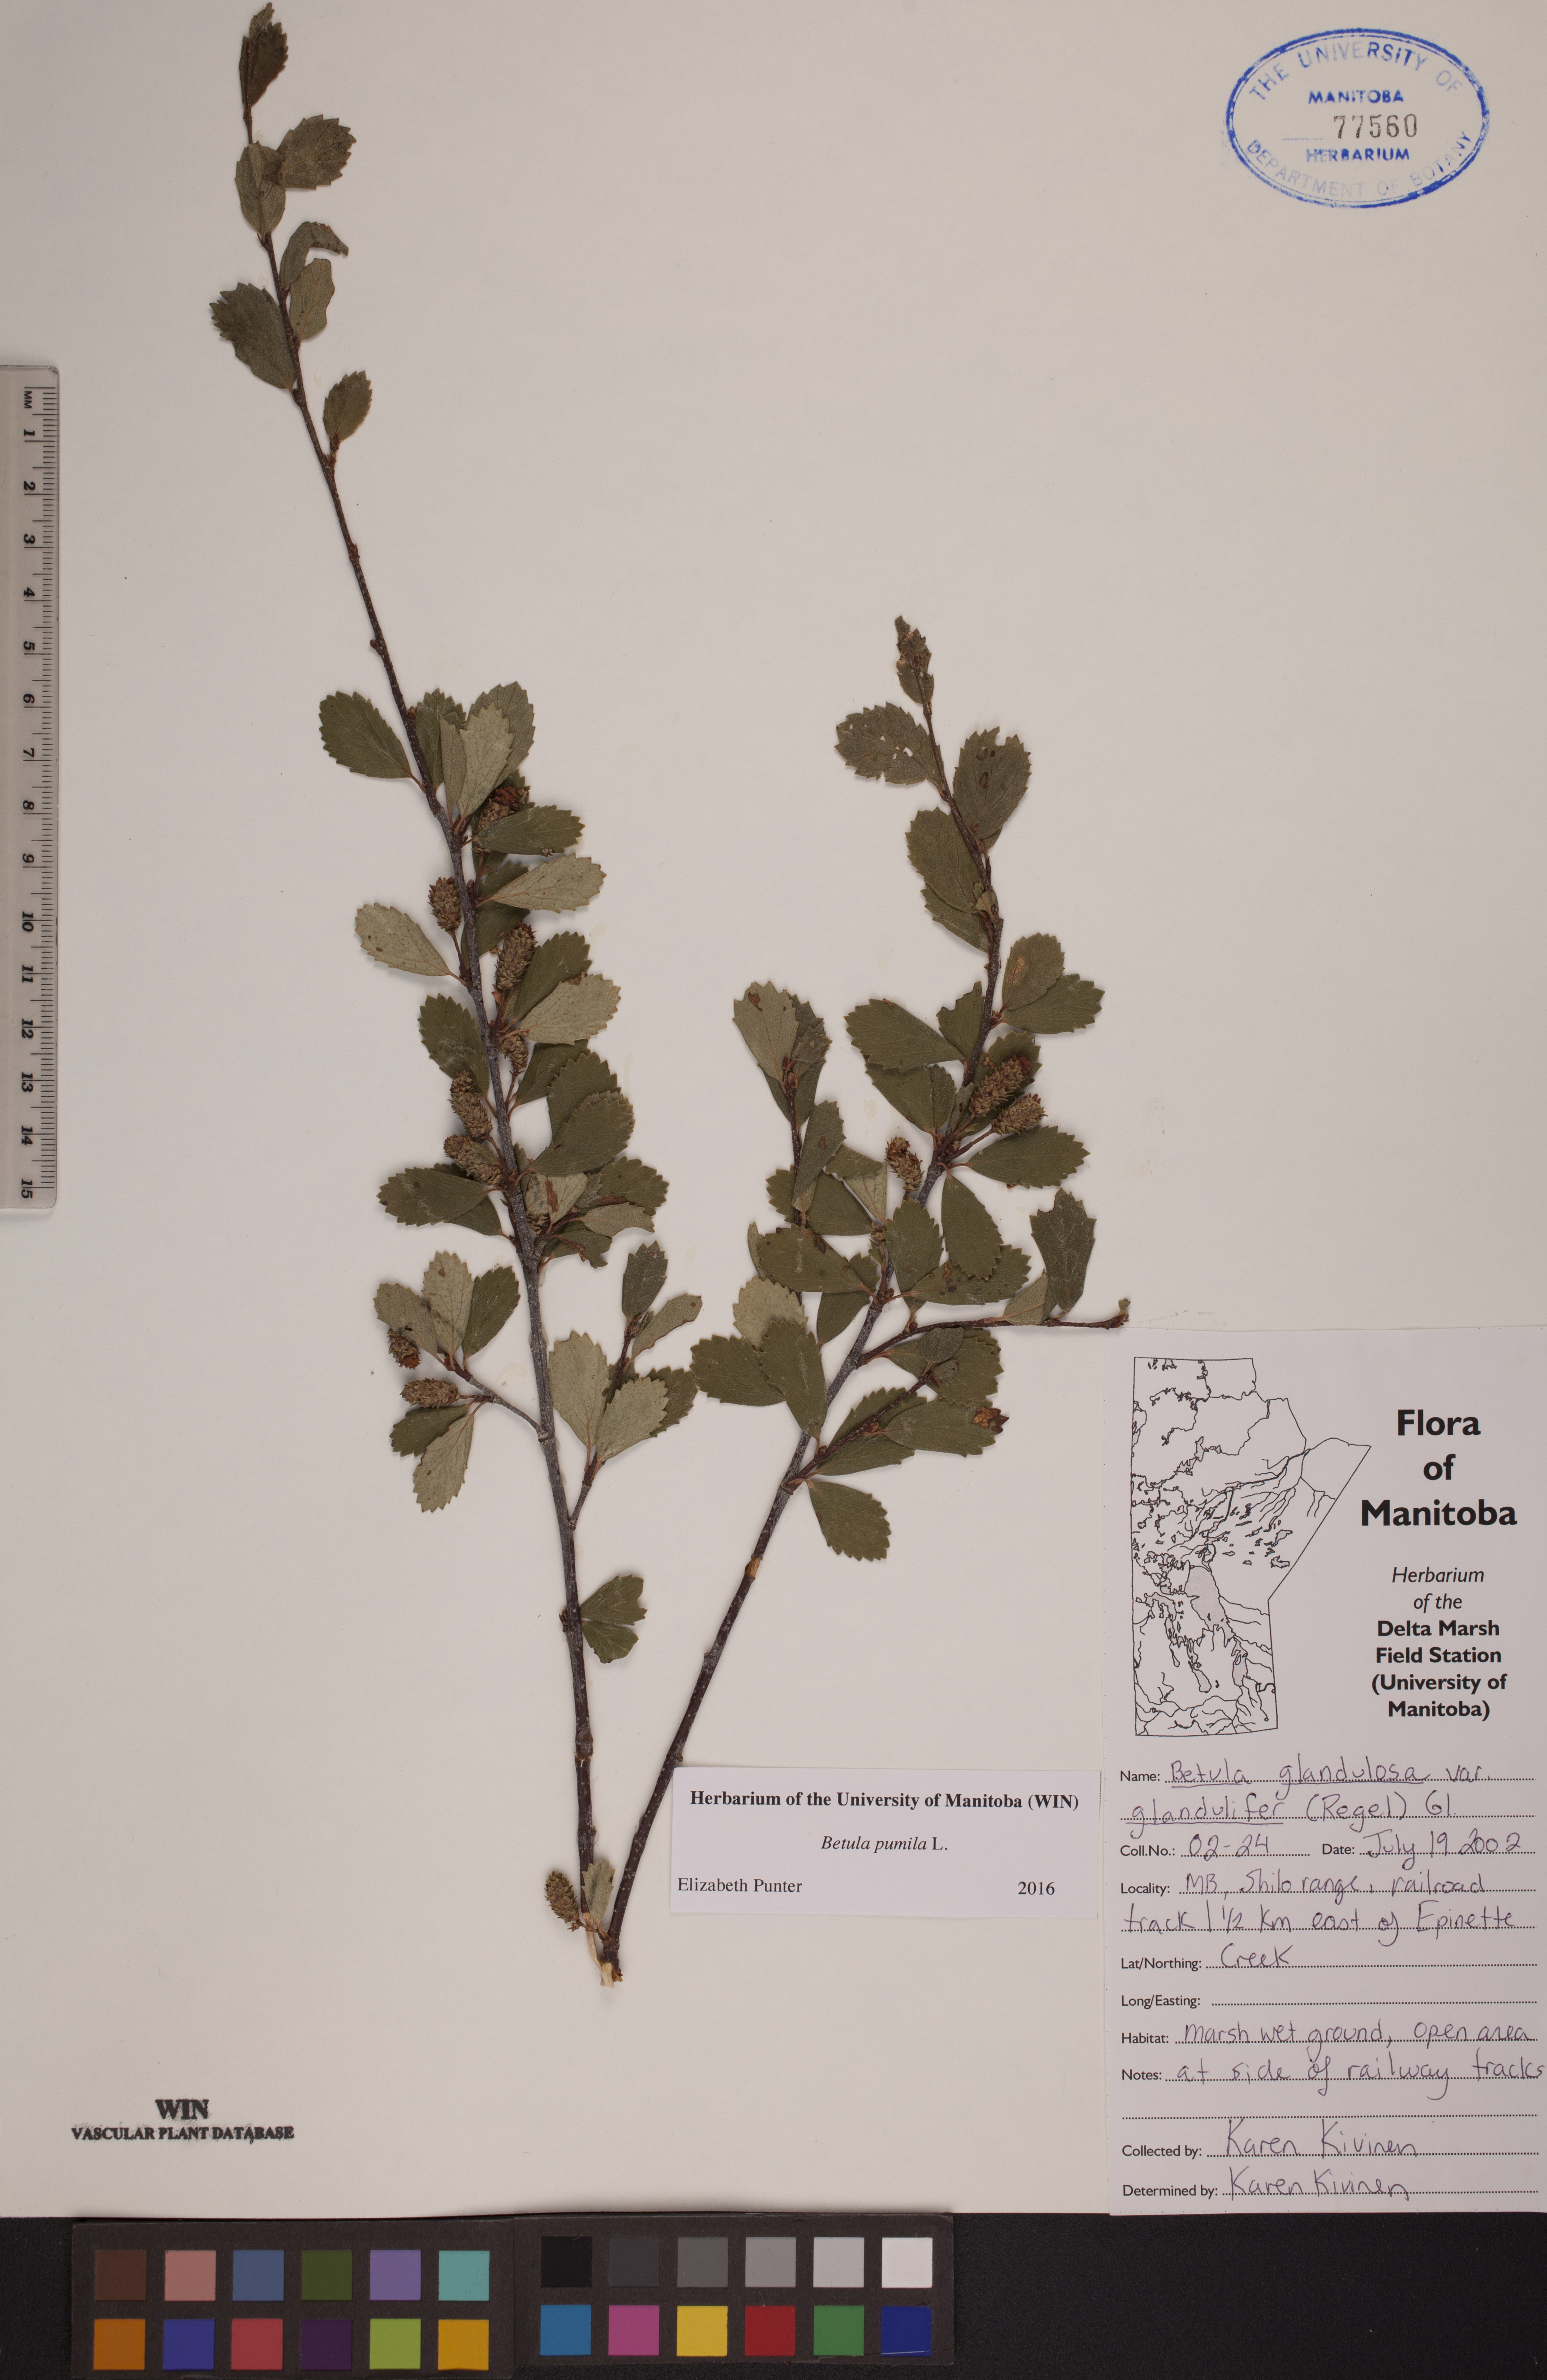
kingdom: Plantae
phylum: Tracheophyta
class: Magnoliopsida
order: Fagales
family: Betulaceae
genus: Betula
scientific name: Betula pumila
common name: Bog birch
